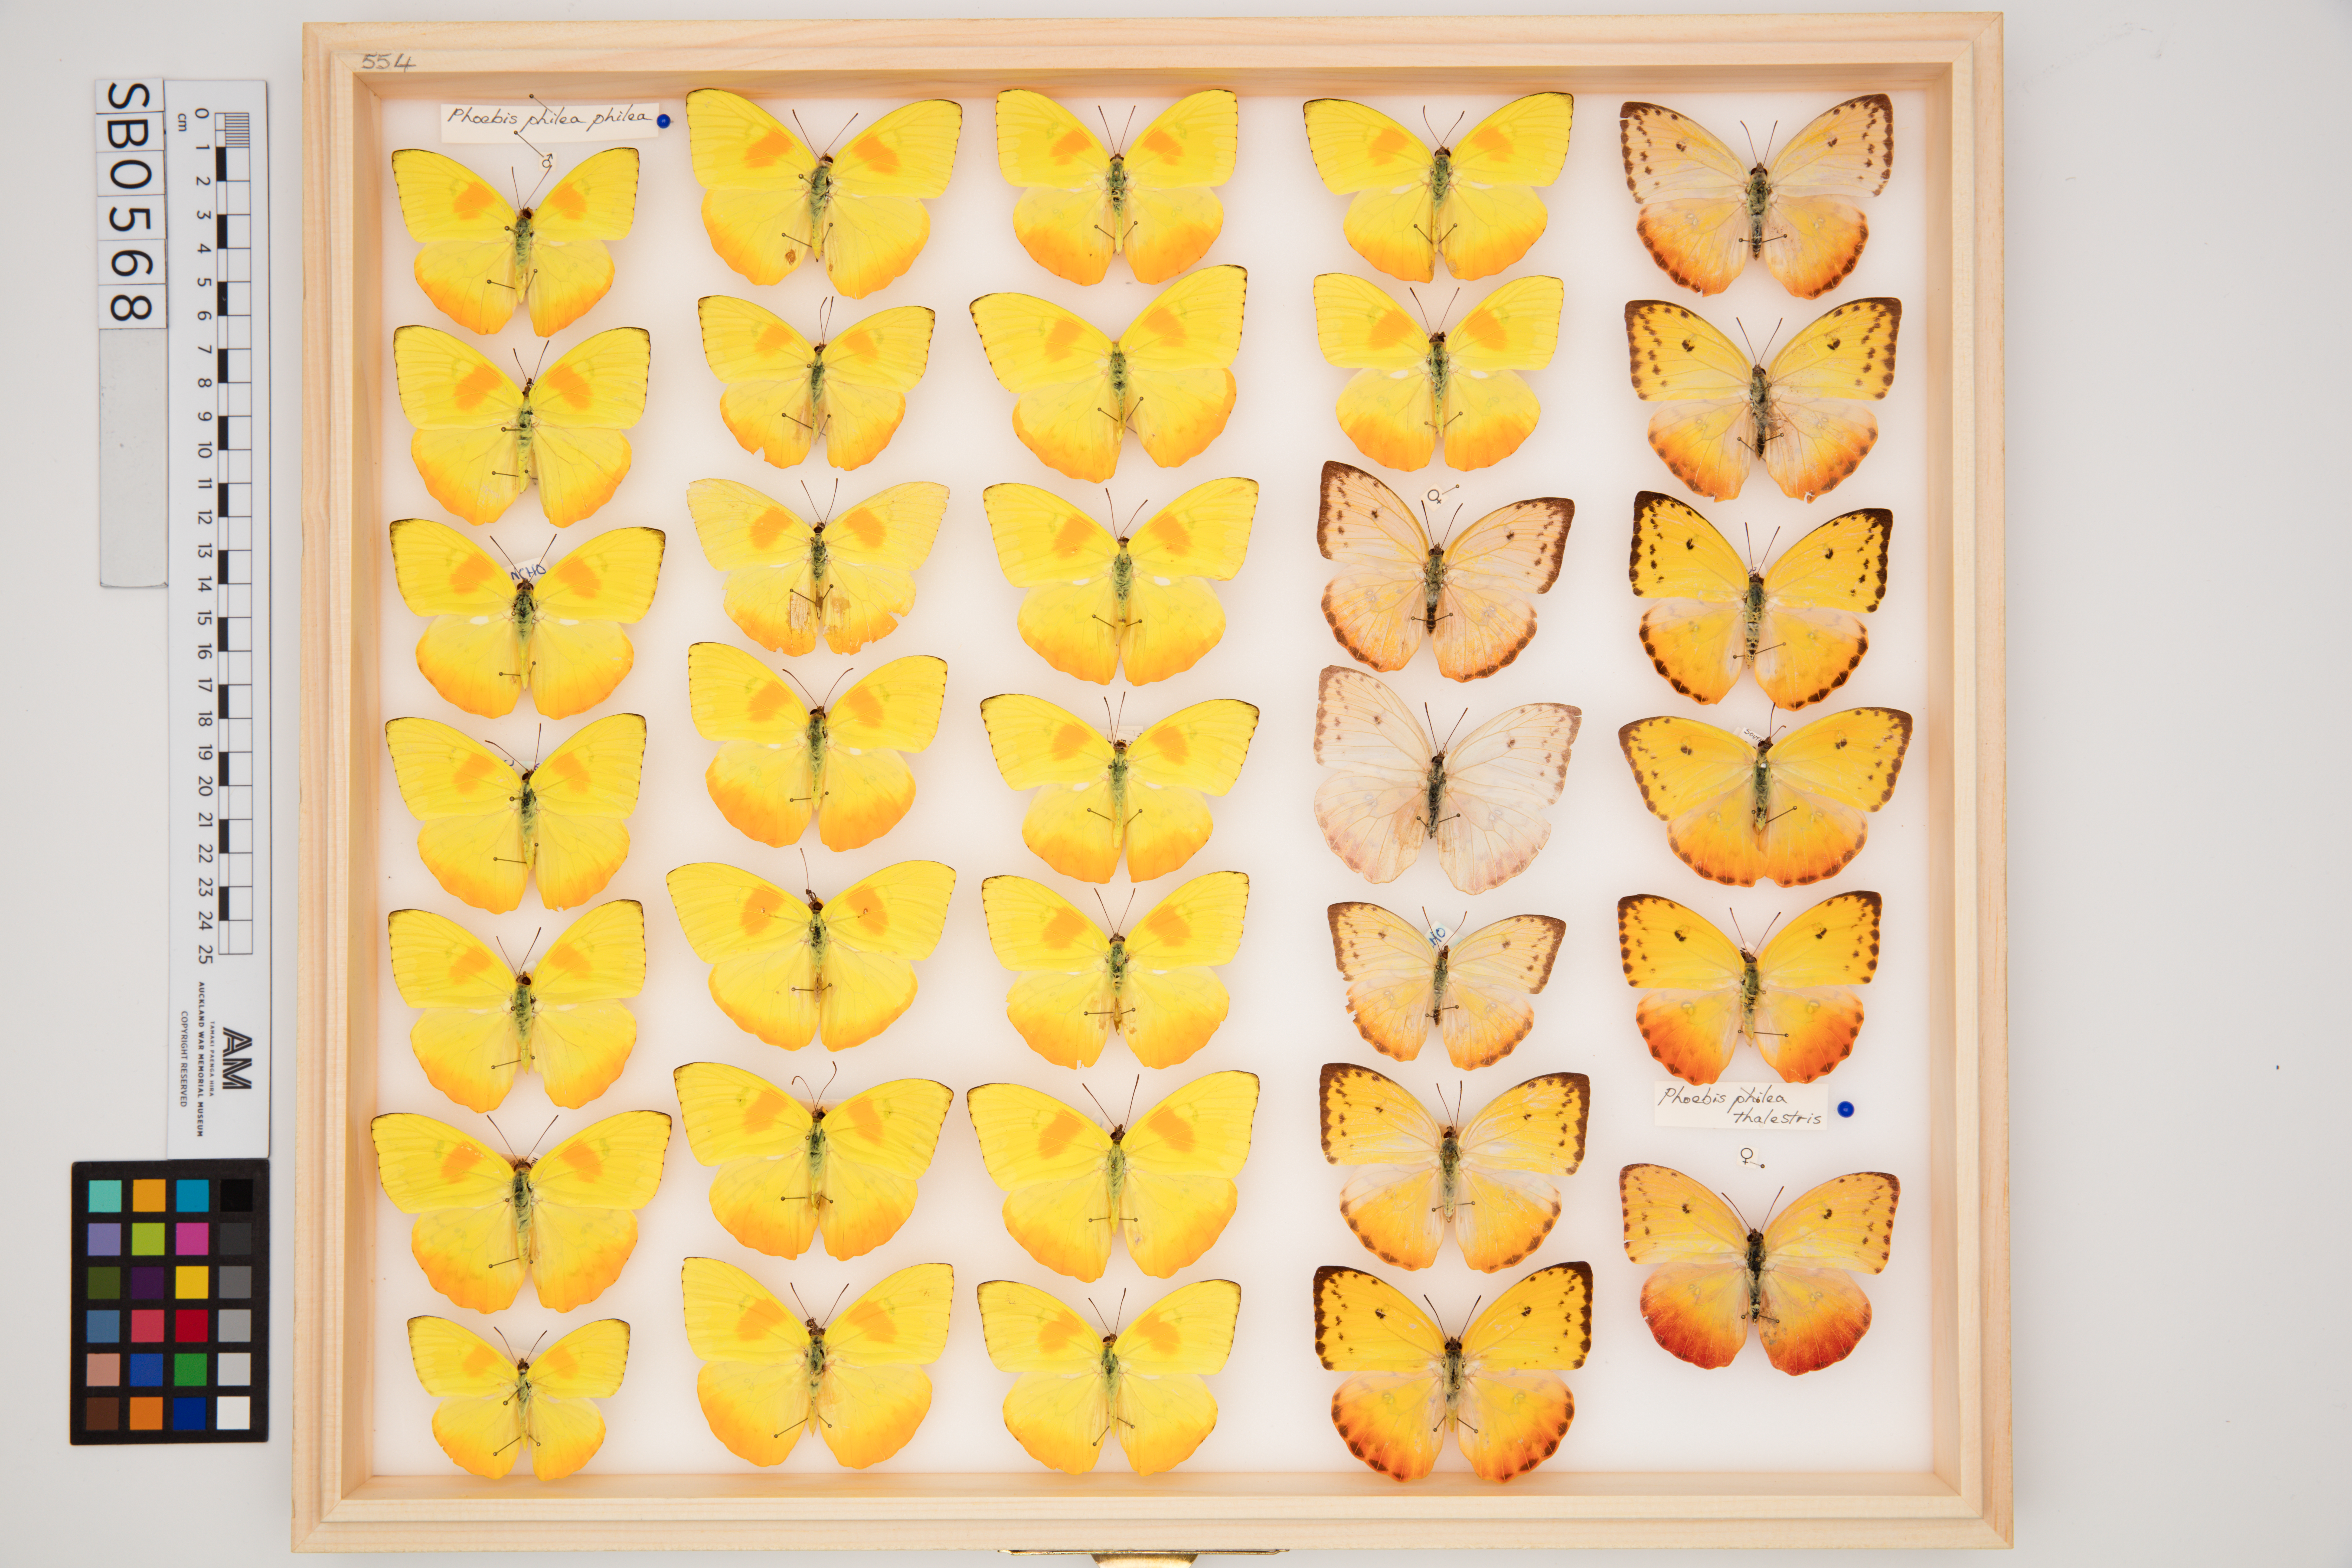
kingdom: Animalia
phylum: Arthropoda
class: Insecta
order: Lepidoptera
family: Pieridae
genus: Phoebis
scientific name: Phoebis philea
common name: Orange-barred giant sulphur
